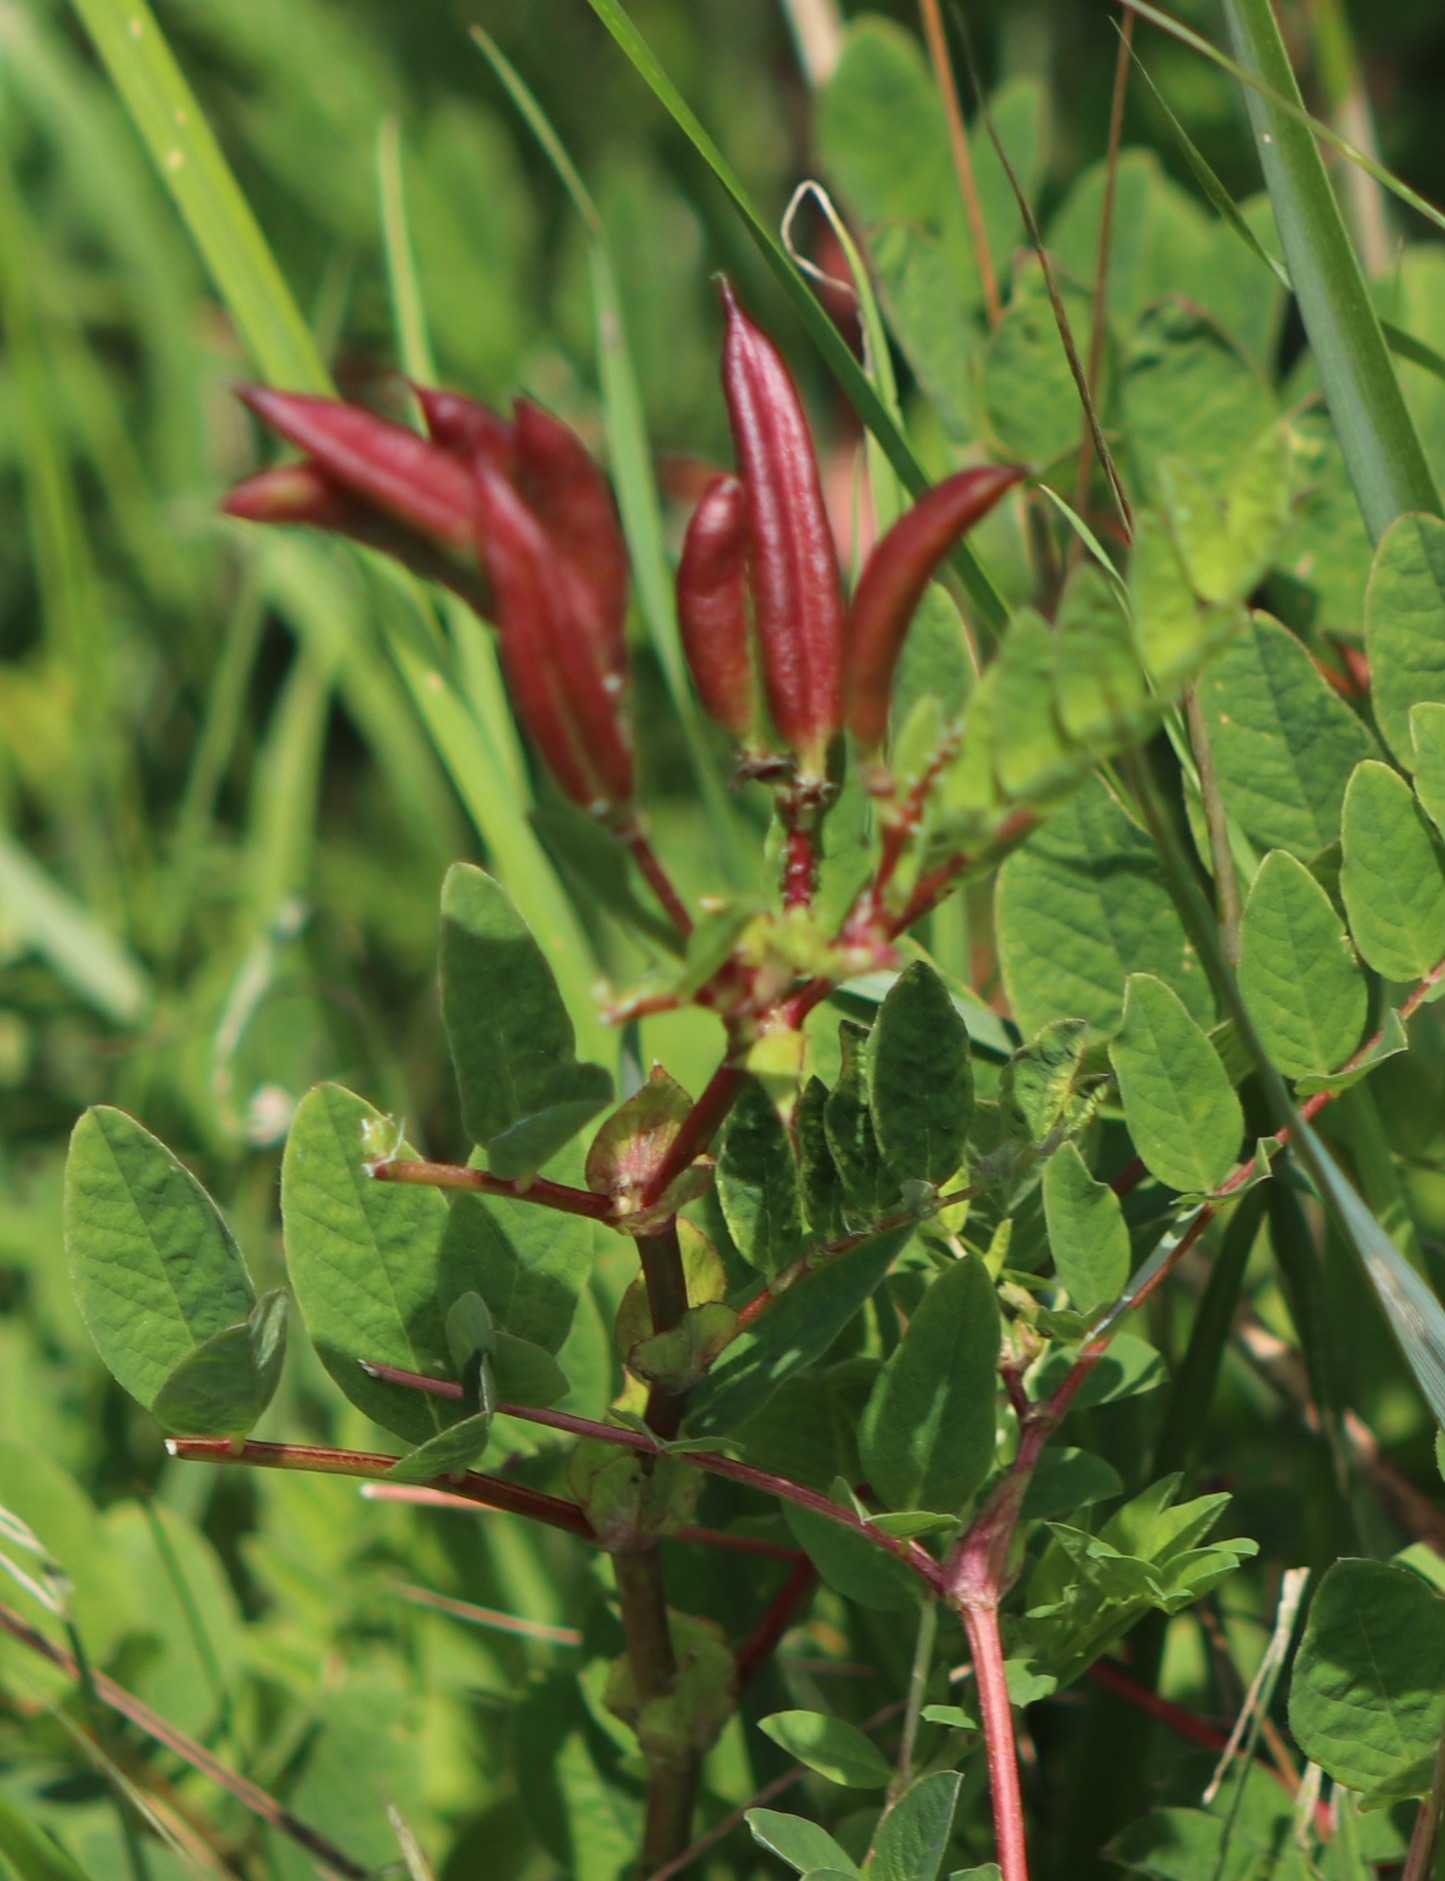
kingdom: Plantae
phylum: Tracheophyta
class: Magnoliopsida
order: Fabales
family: Fabaceae
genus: Astragalus
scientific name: Astragalus glycyphyllos
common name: Sød astragel
